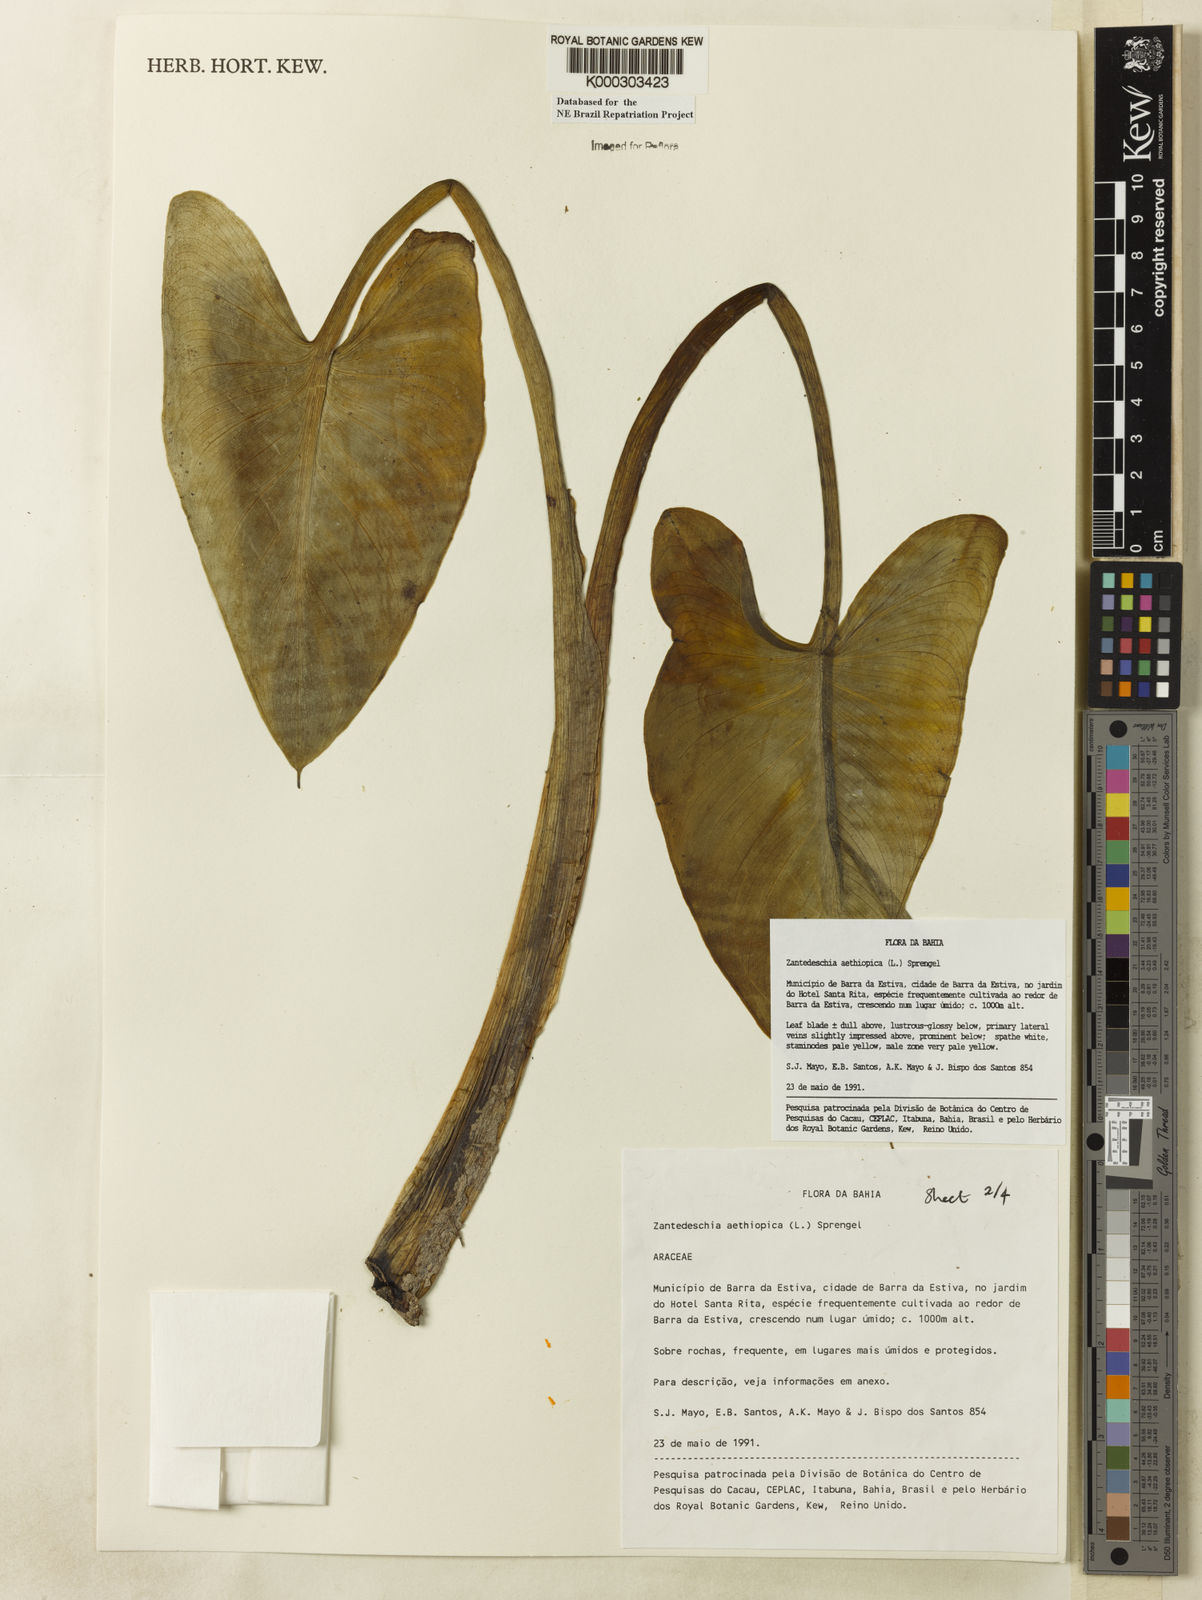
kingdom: Plantae
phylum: Tracheophyta
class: Liliopsida
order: Alismatales
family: Araceae
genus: Zantedeschia
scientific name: Zantedeschia aethiopica
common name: Altar-lily
